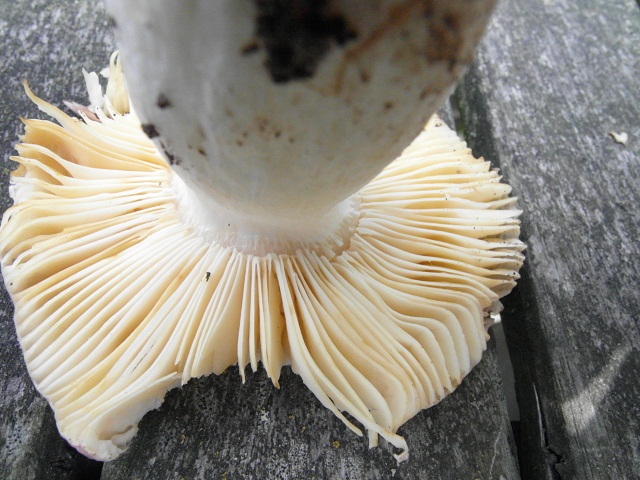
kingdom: Fungi
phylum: Basidiomycota
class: Agaricomycetes
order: Russulales
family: Russulaceae
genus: Russula
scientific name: Russula
